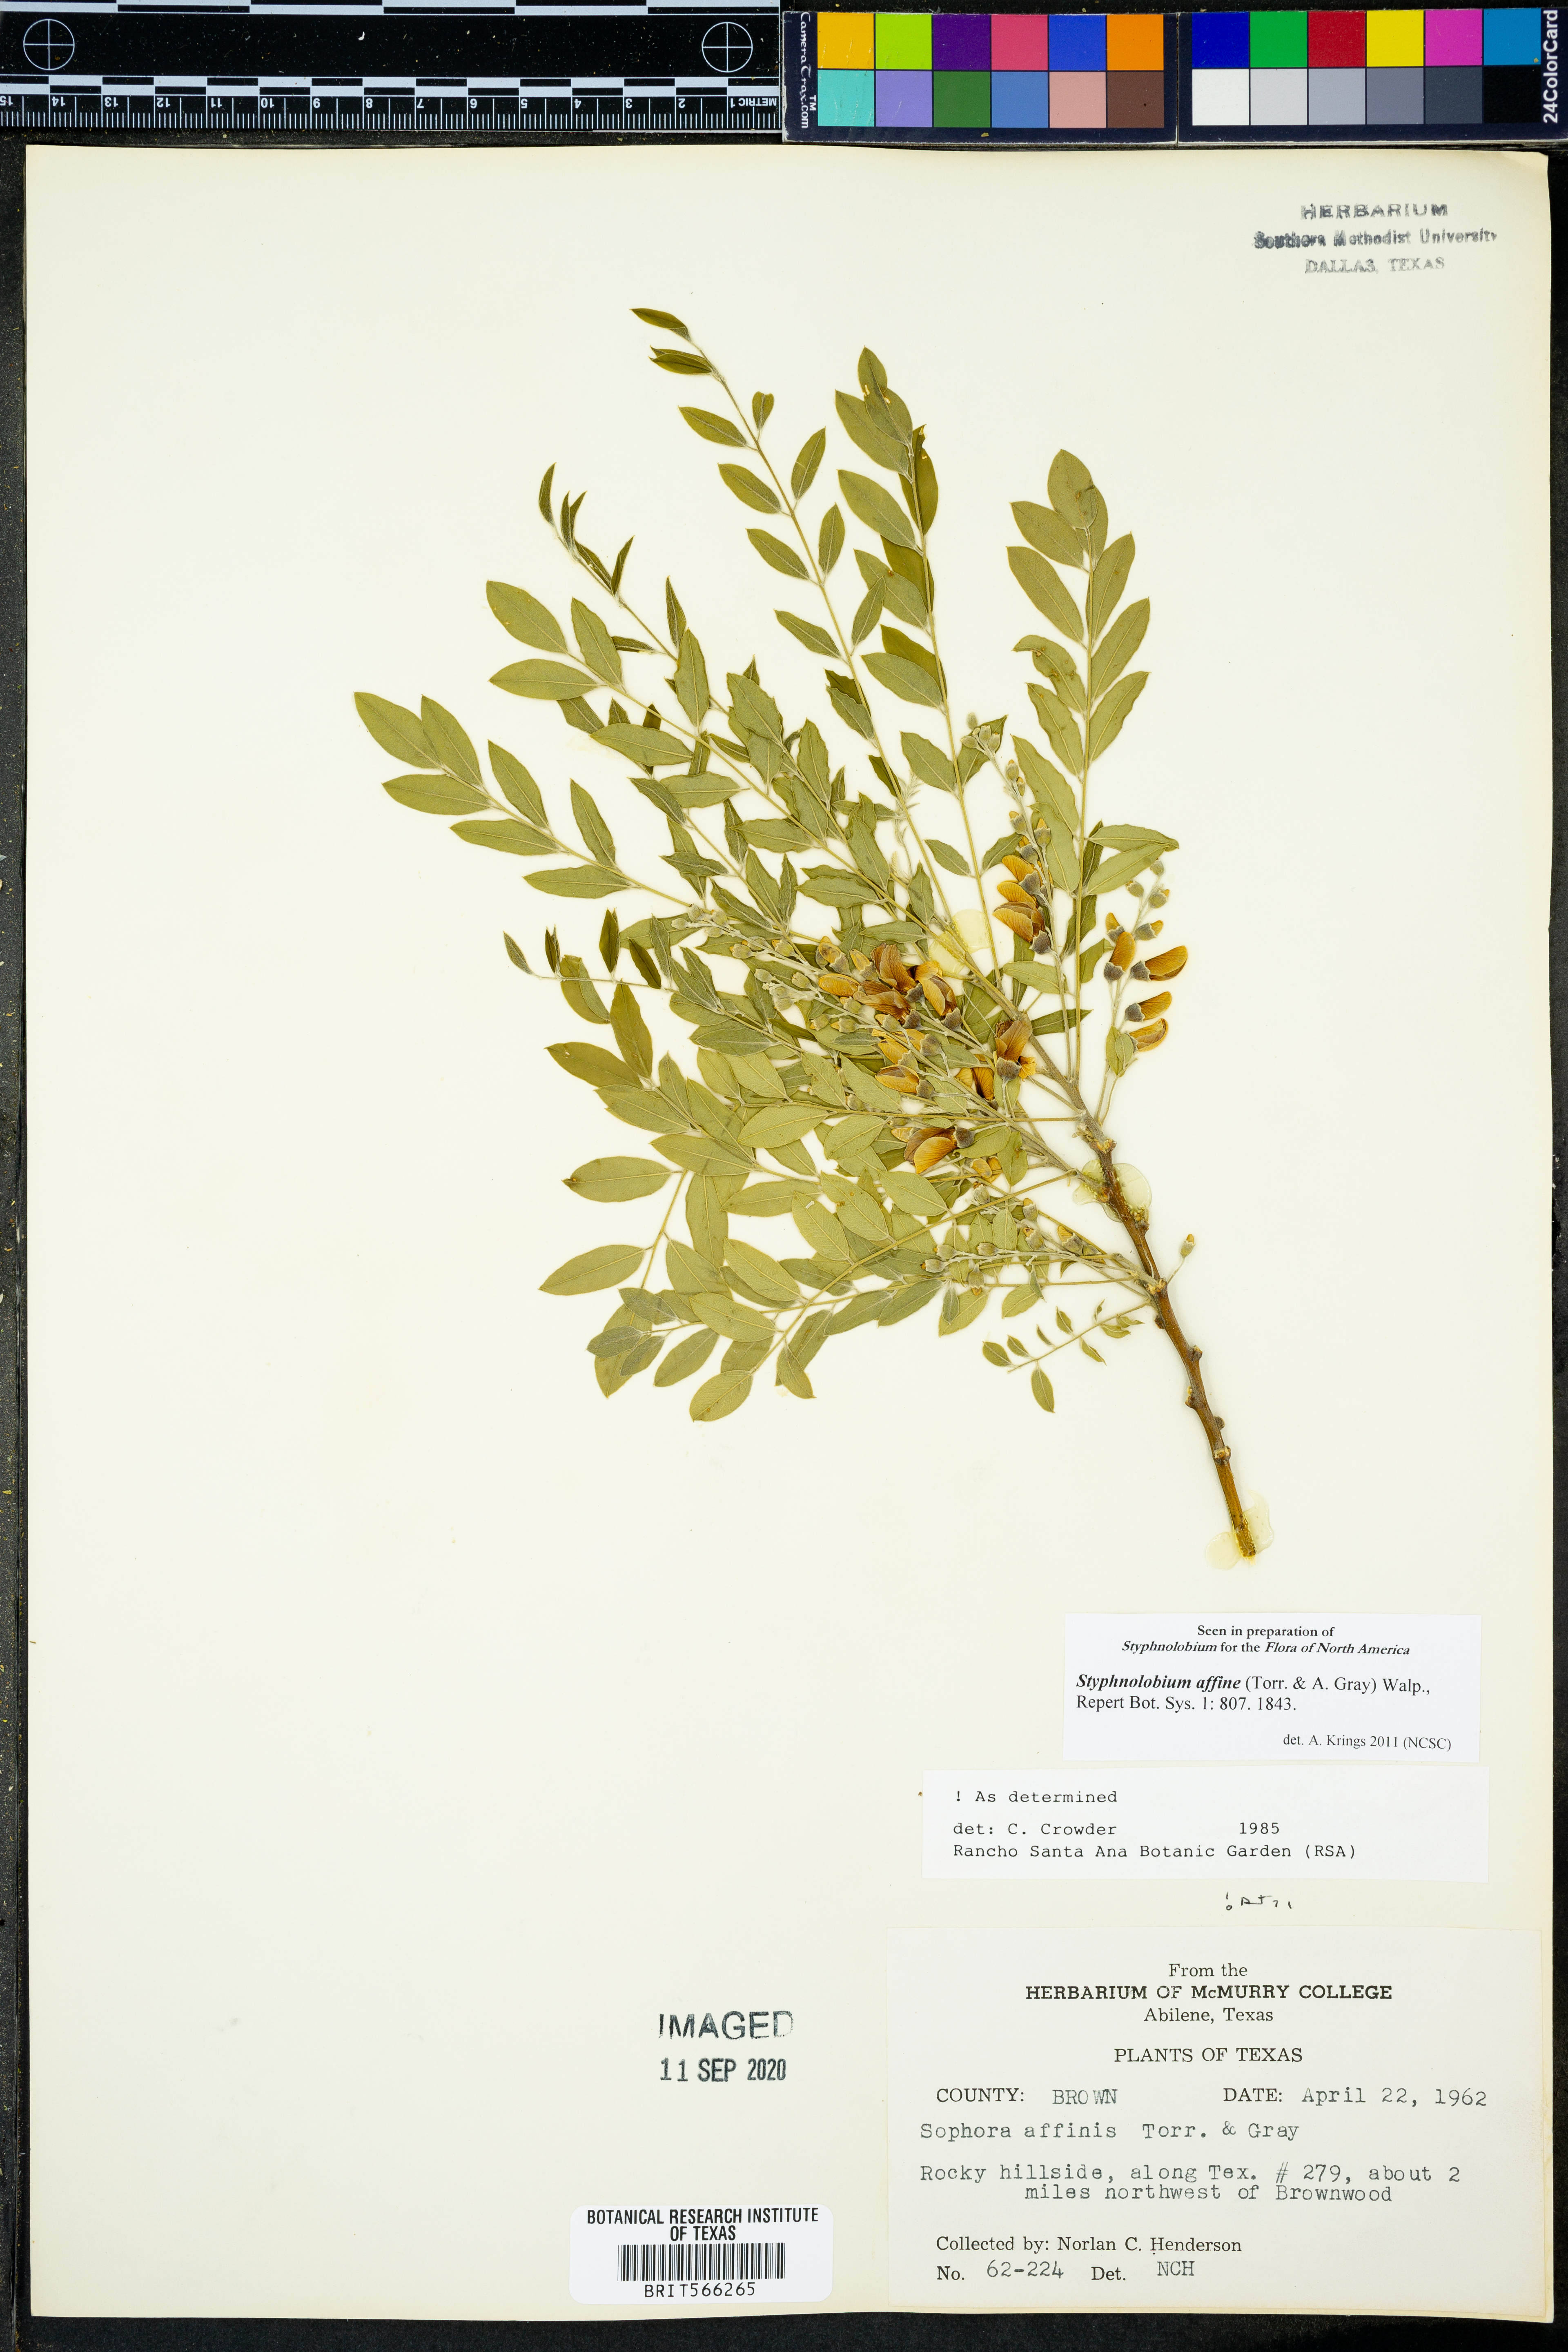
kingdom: Plantae
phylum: Tracheophyta
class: Magnoliopsida
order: Fabales
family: Fabaceae
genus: Styphnolobium
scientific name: Styphnolobium affine
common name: Texas sophora
